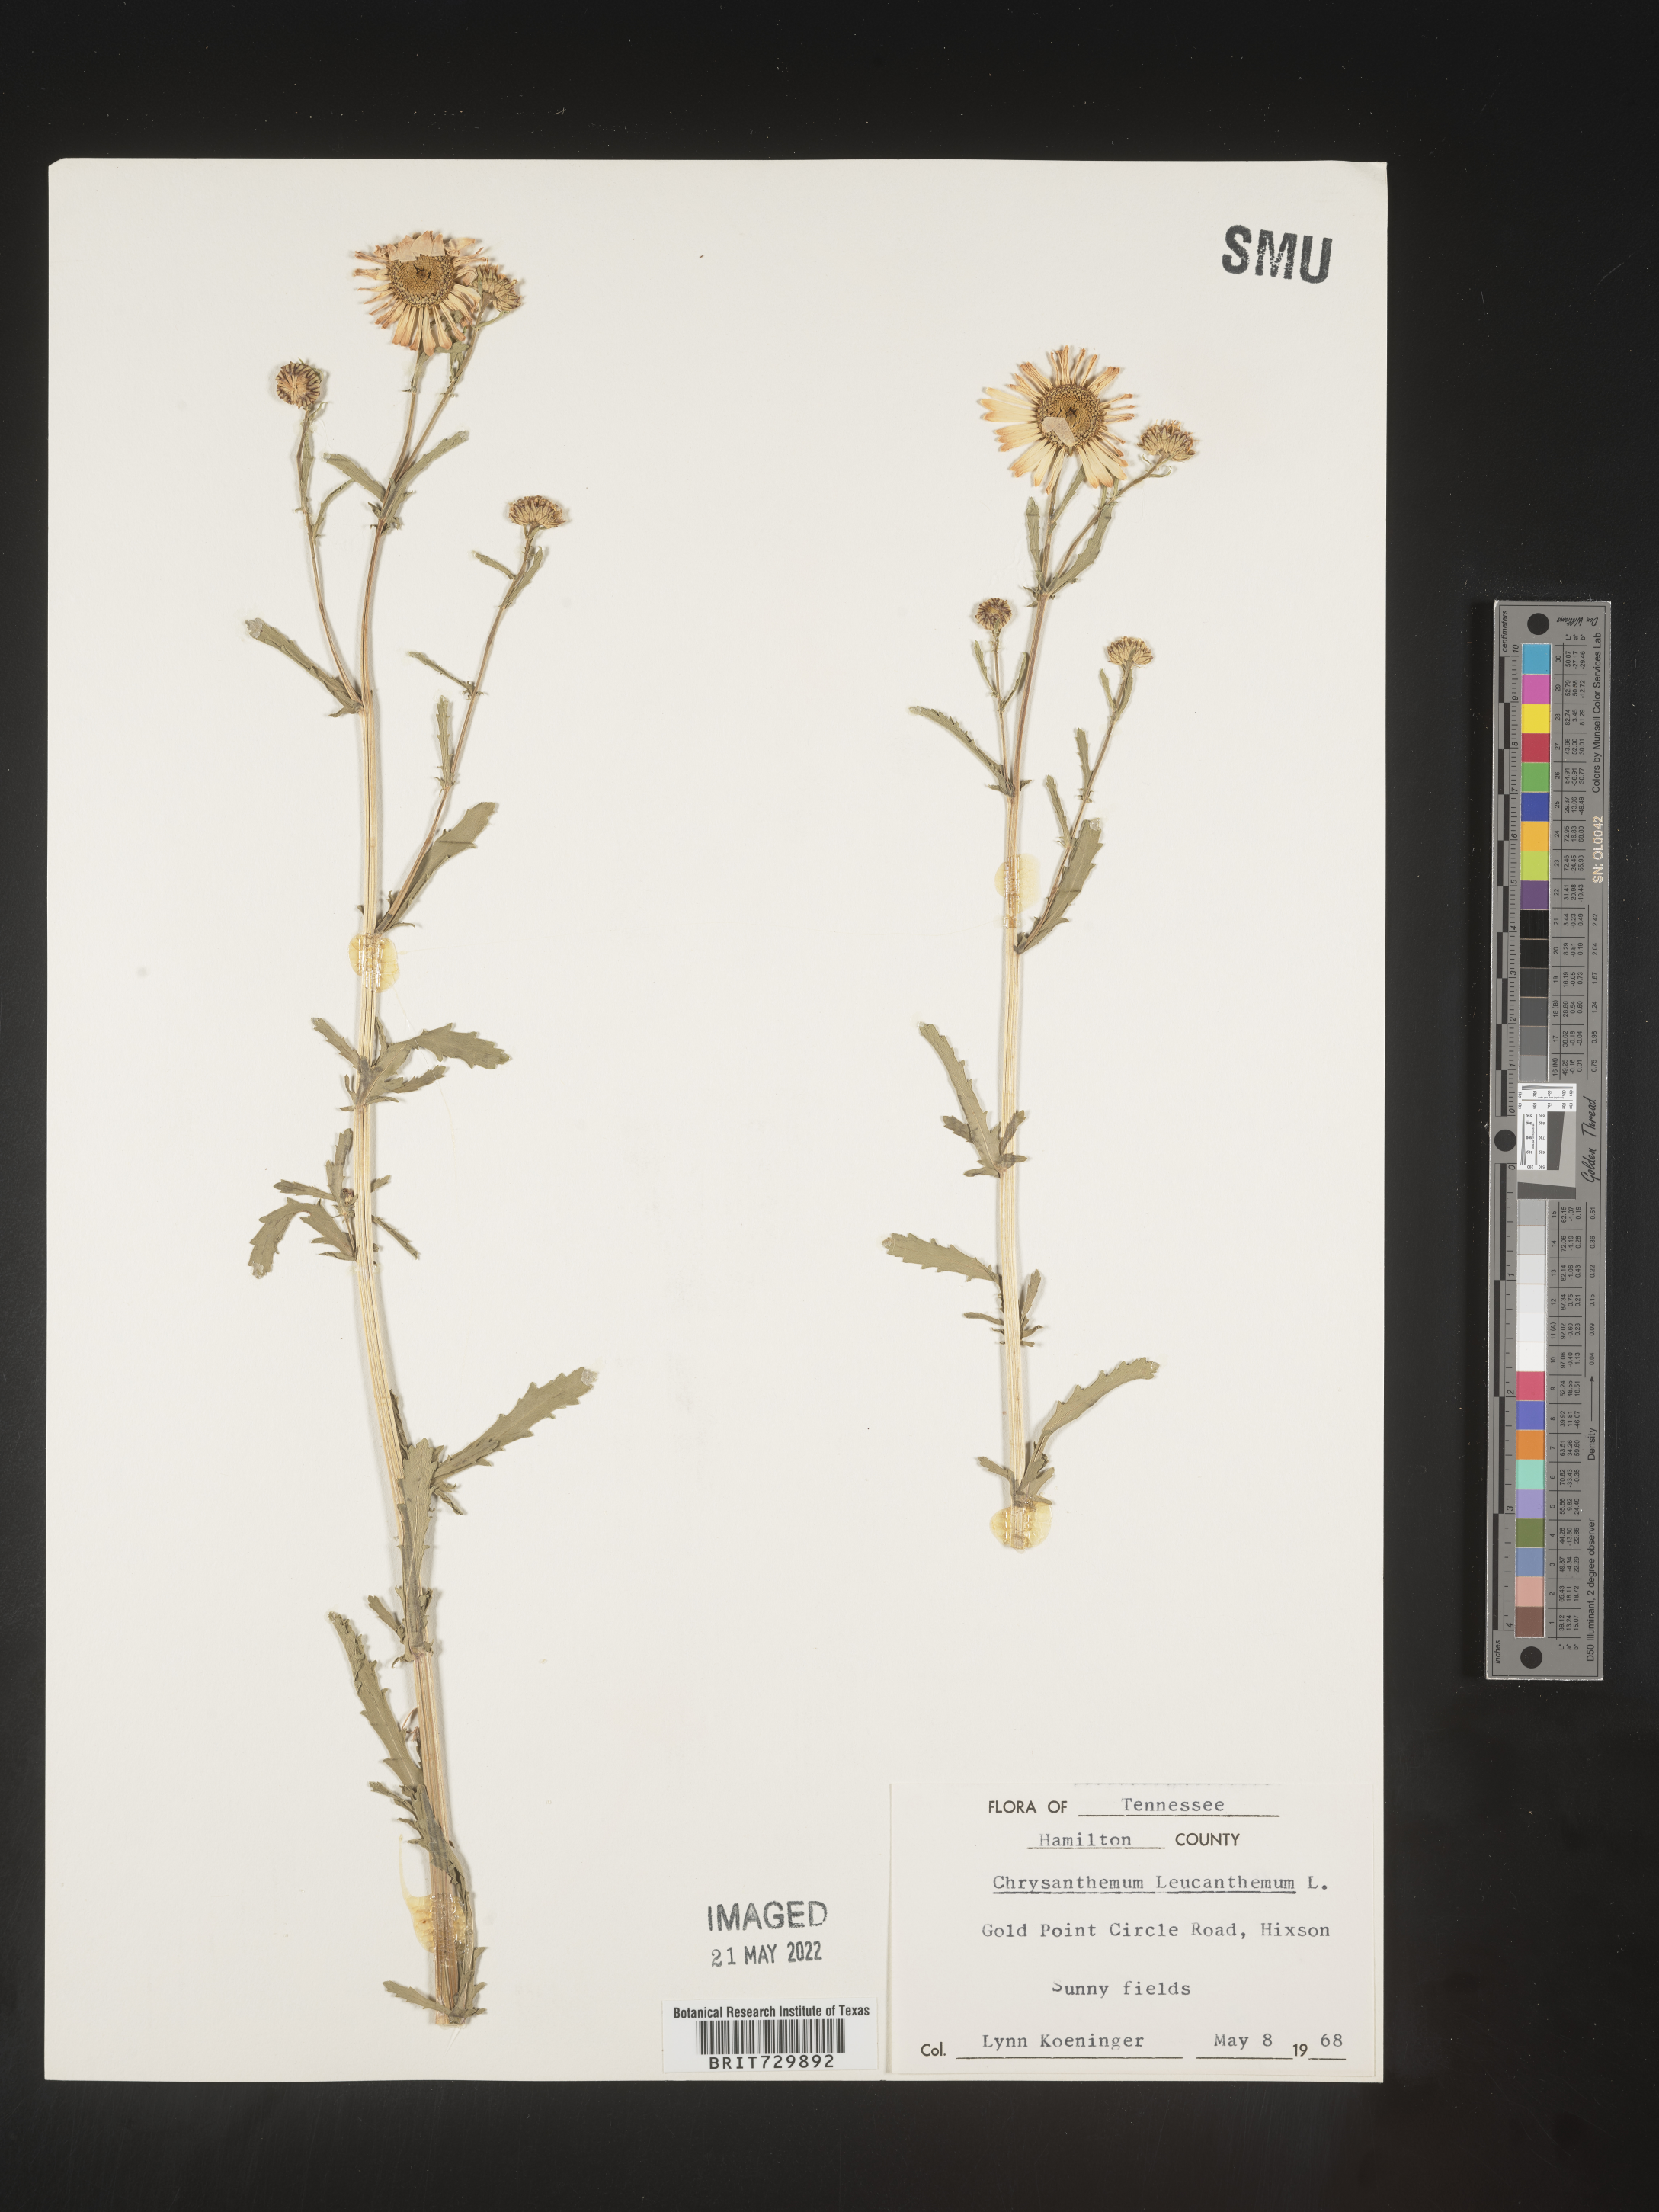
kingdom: Plantae
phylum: Tracheophyta
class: Magnoliopsida
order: Asterales
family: Asteraceae
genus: Leucanthemum
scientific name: Leucanthemum vulgare
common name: Oxeye daisy
